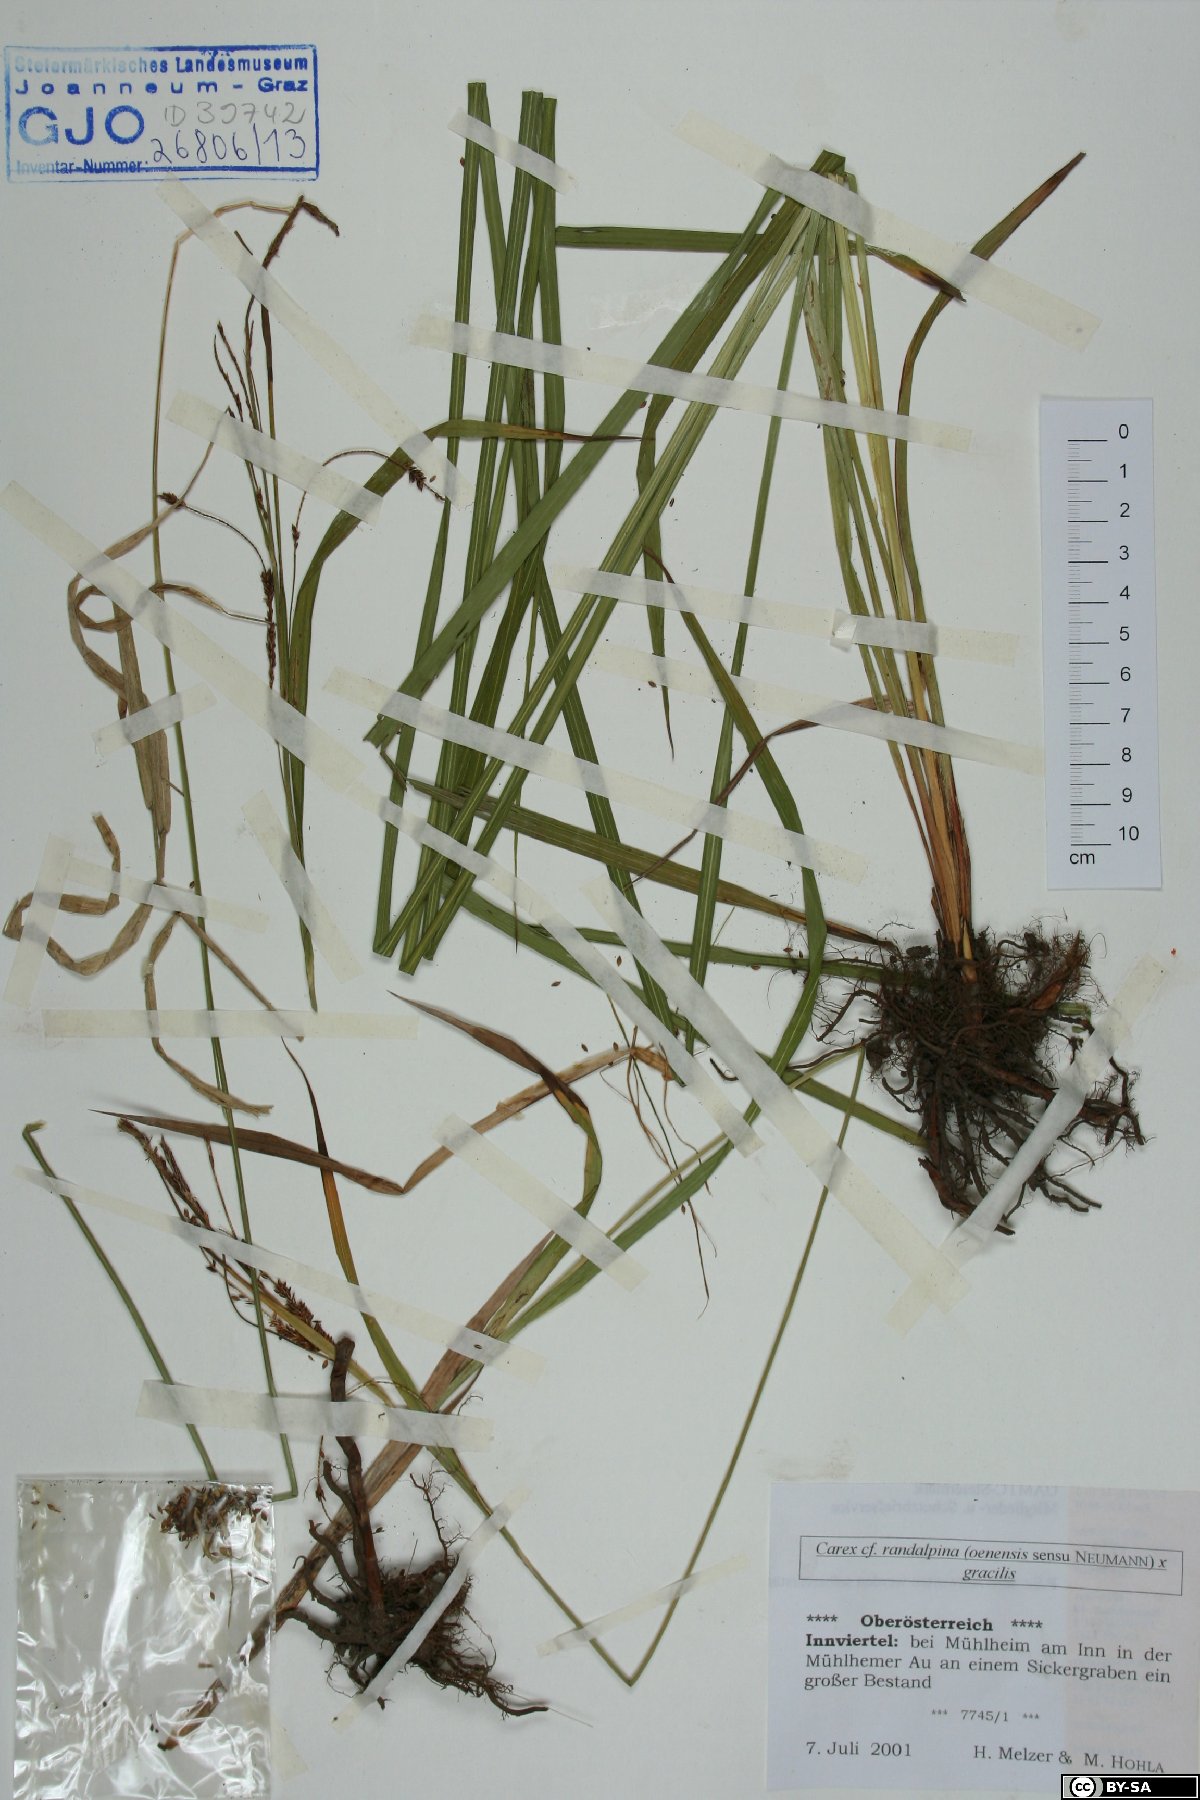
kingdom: Plantae
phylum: Tracheophyta
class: Liliopsida
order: Poales
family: Cyperaceae
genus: Carex
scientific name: Carex randalpina
